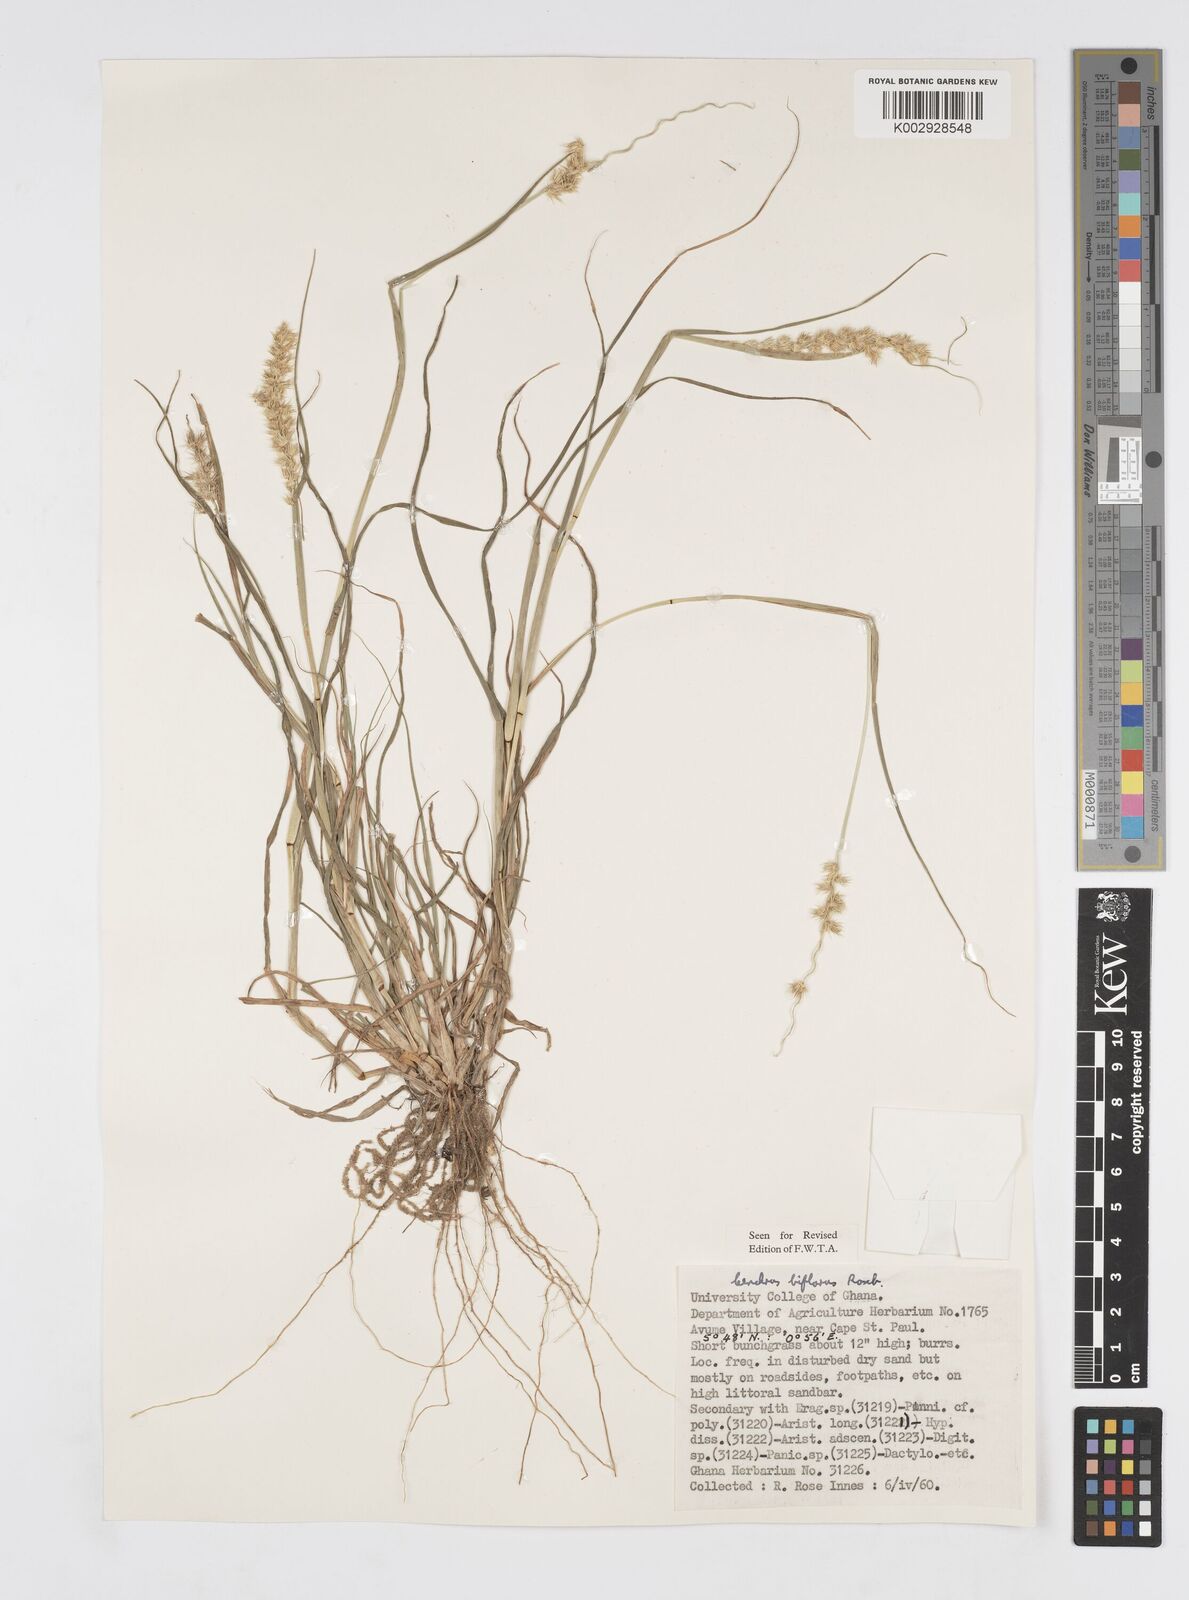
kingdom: Plantae
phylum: Tracheophyta
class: Liliopsida
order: Poales
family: Poaceae
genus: Cenchrus
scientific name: Cenchrus biflorus
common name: Indian sandbur
